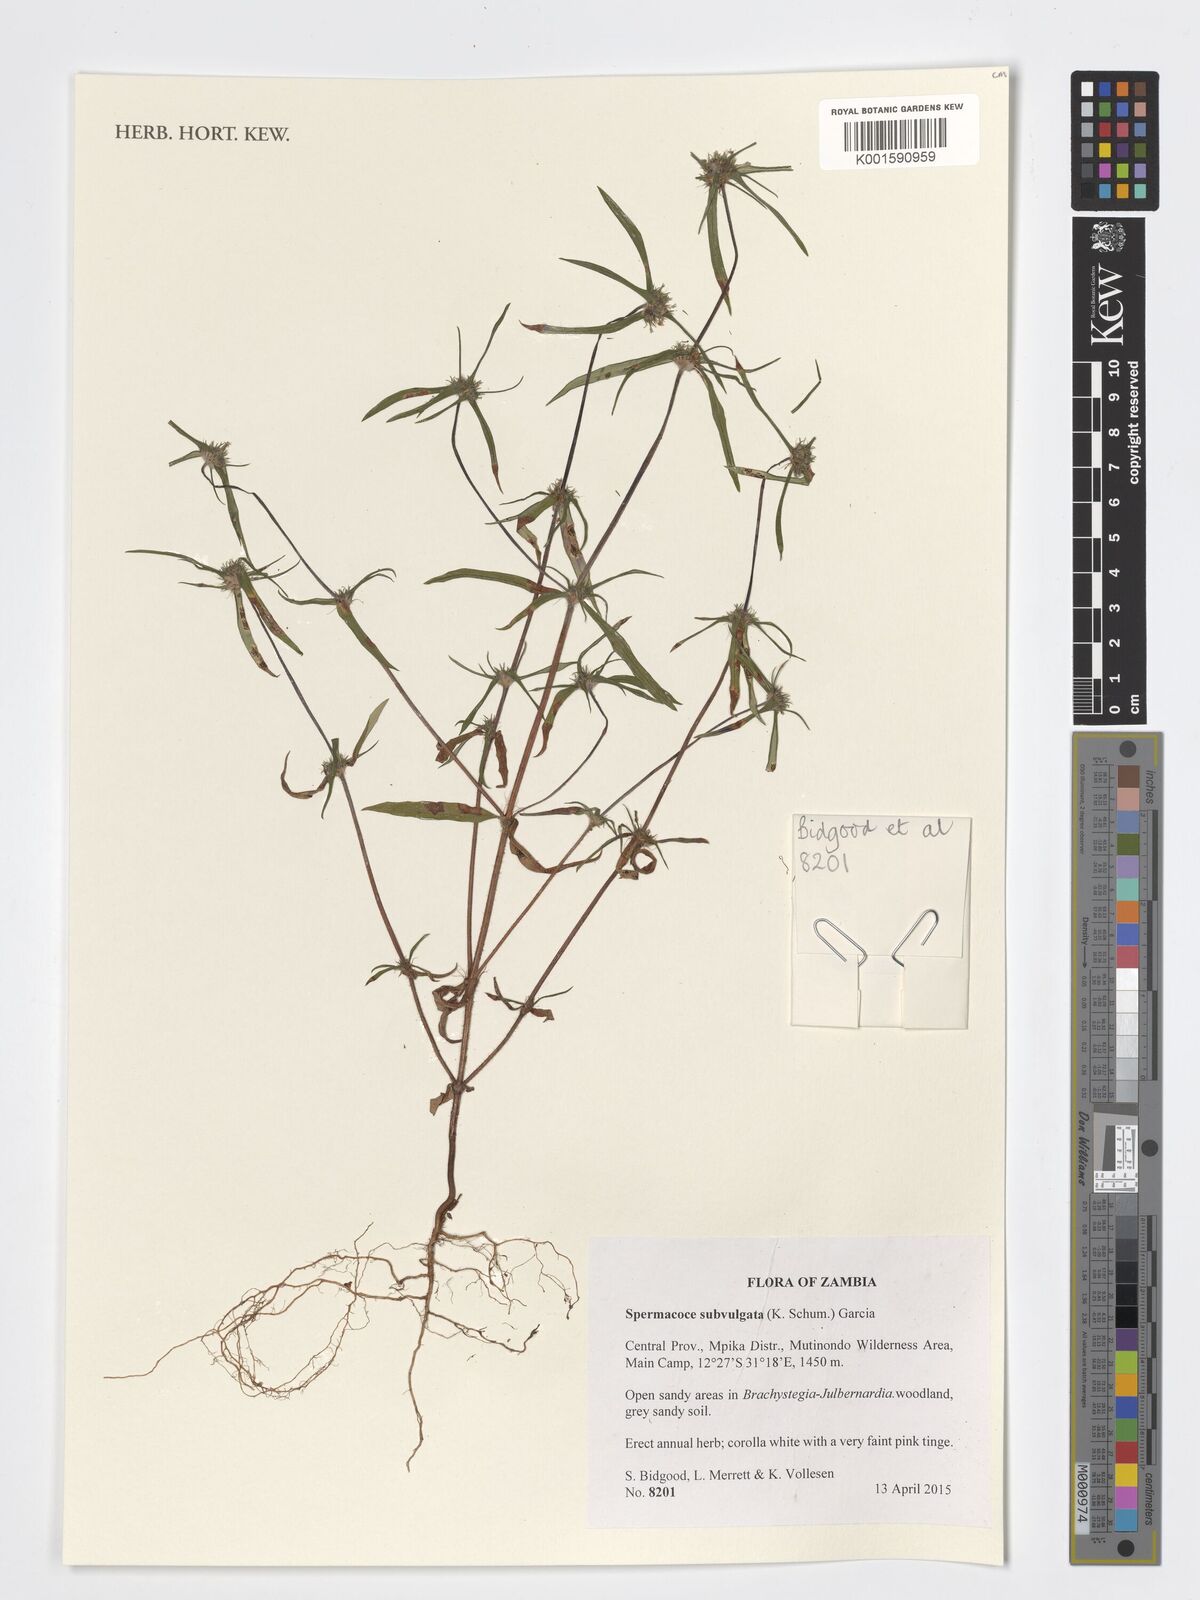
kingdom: Plantae
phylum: Tracheophyta
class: Magnoliopsida
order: Gentianales
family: Rubiaceae
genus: Spermacoce
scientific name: Spermacoce subvulgata
